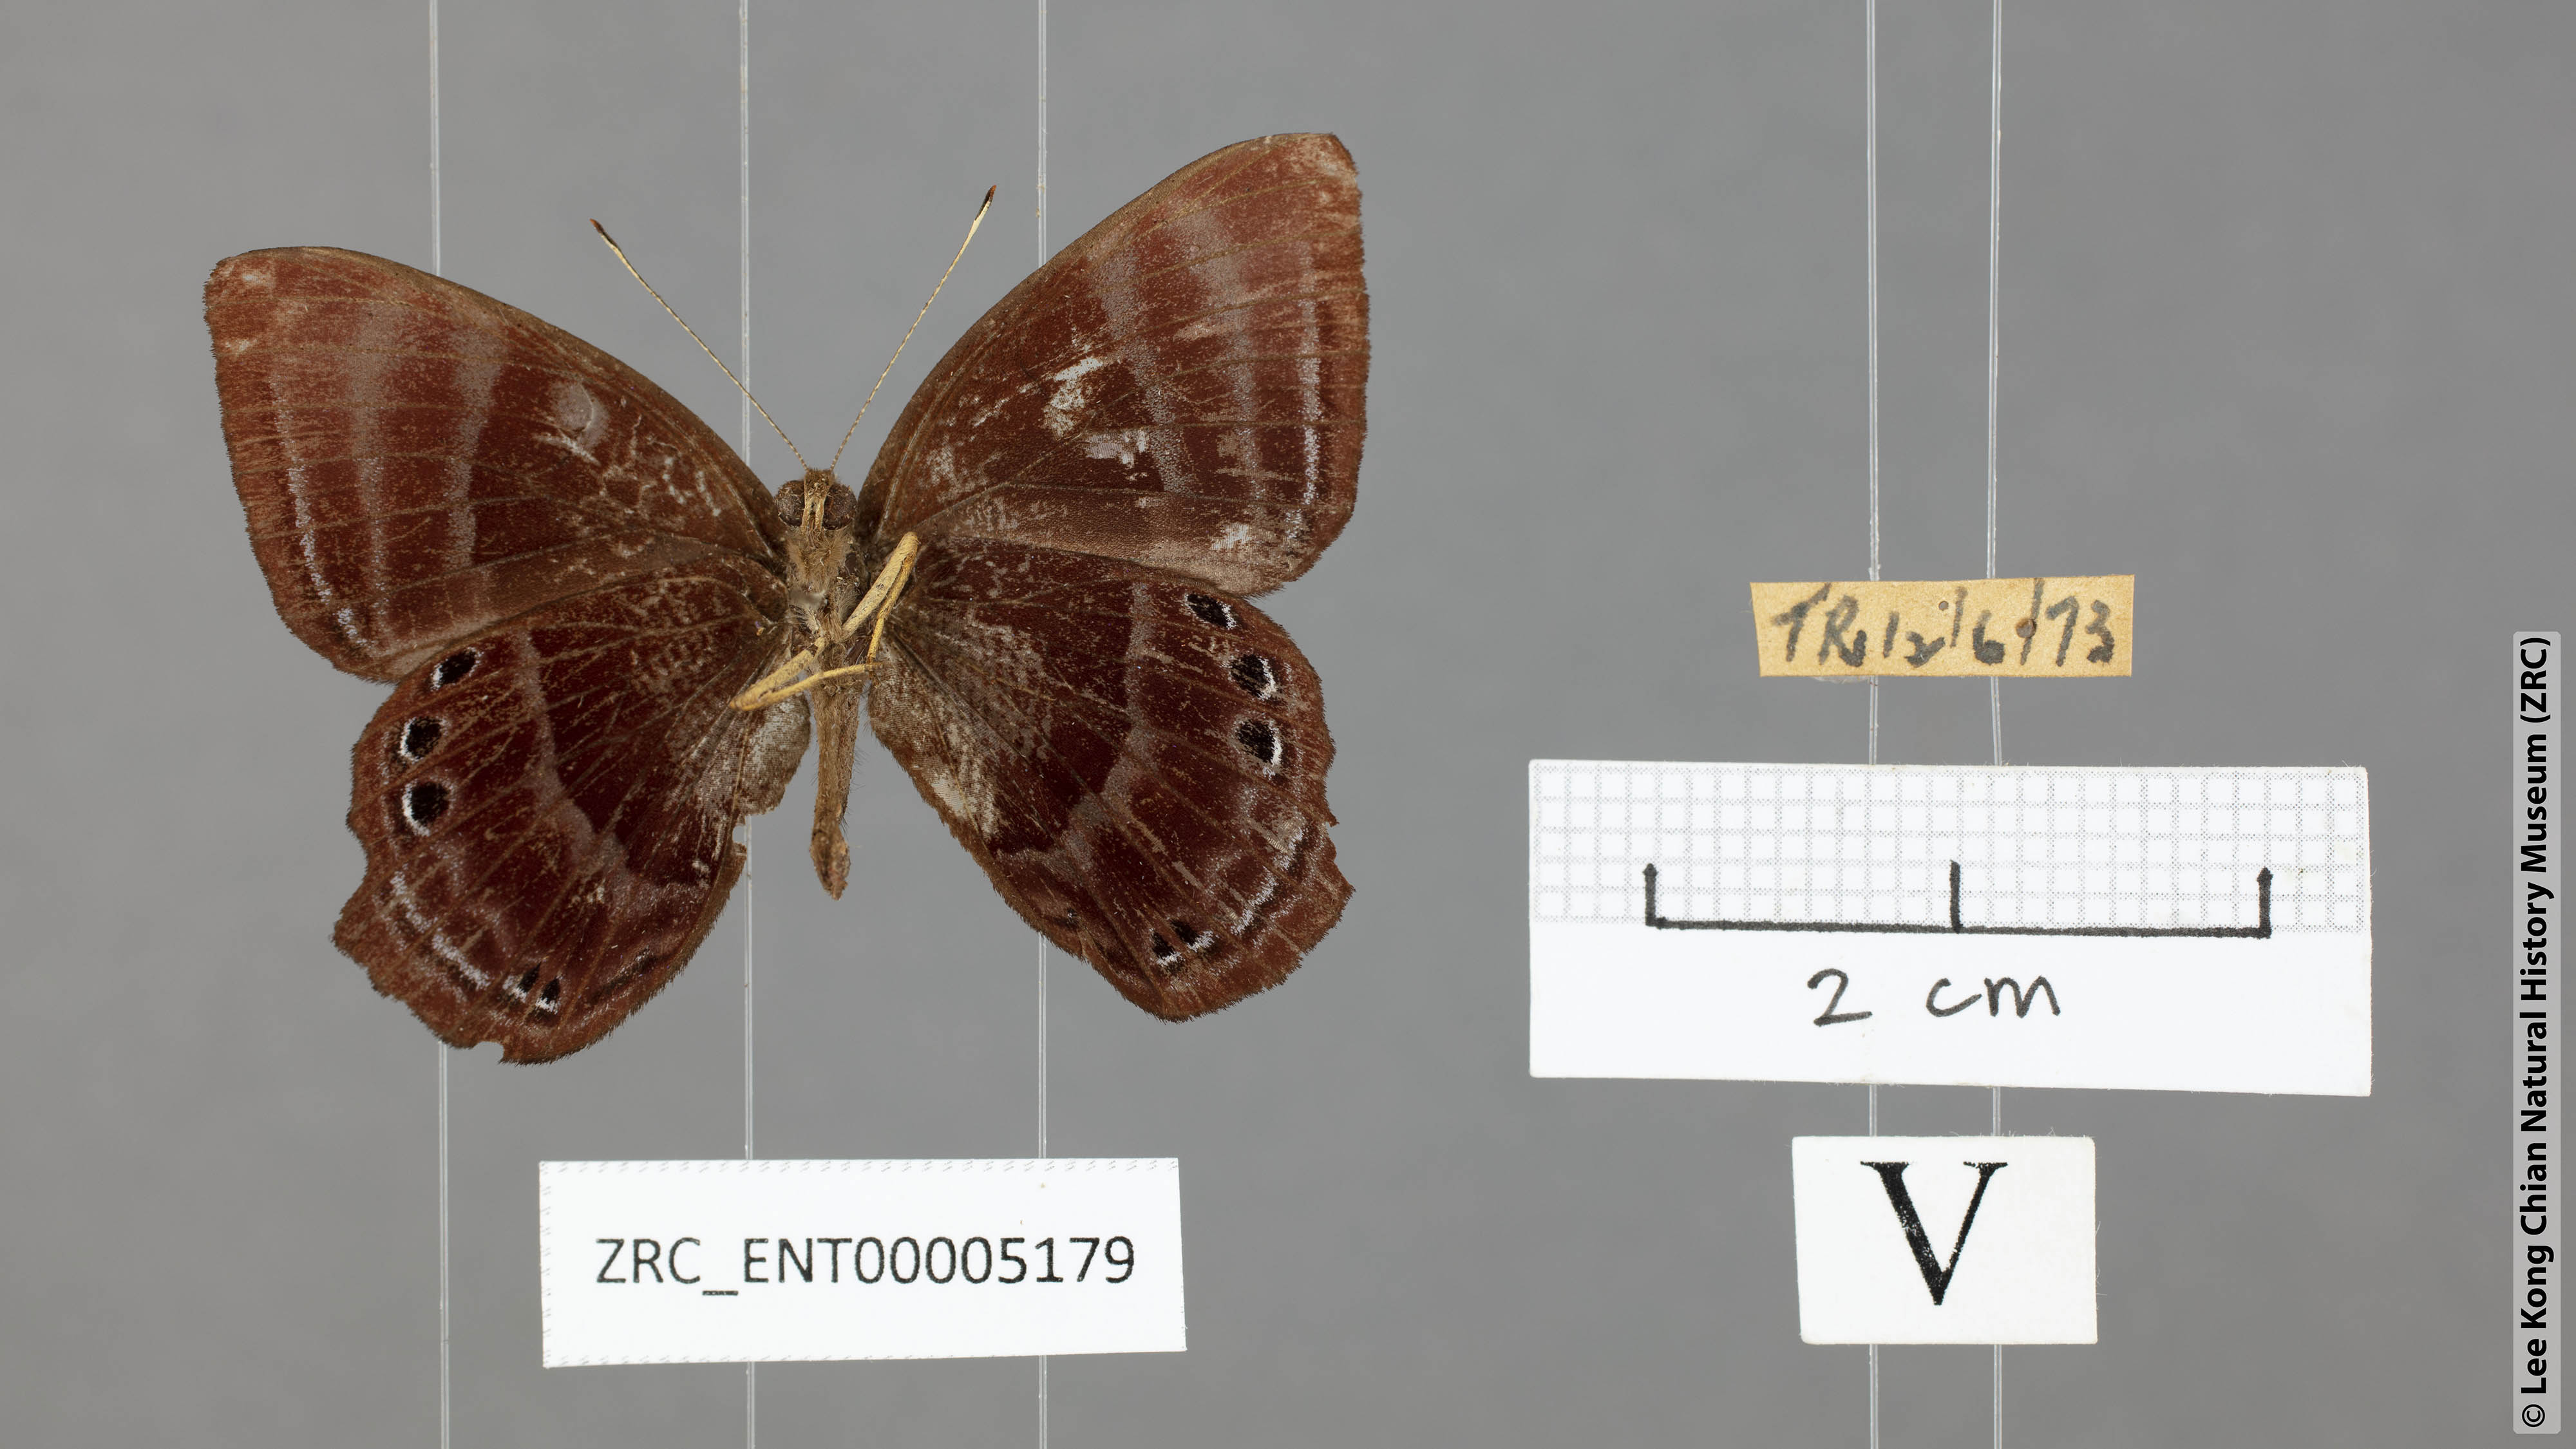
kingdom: Animalia
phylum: Arthropoda
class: Insecta
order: Lepidoptera
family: Lycaenidae
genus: Abisara
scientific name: Abisara saturata
